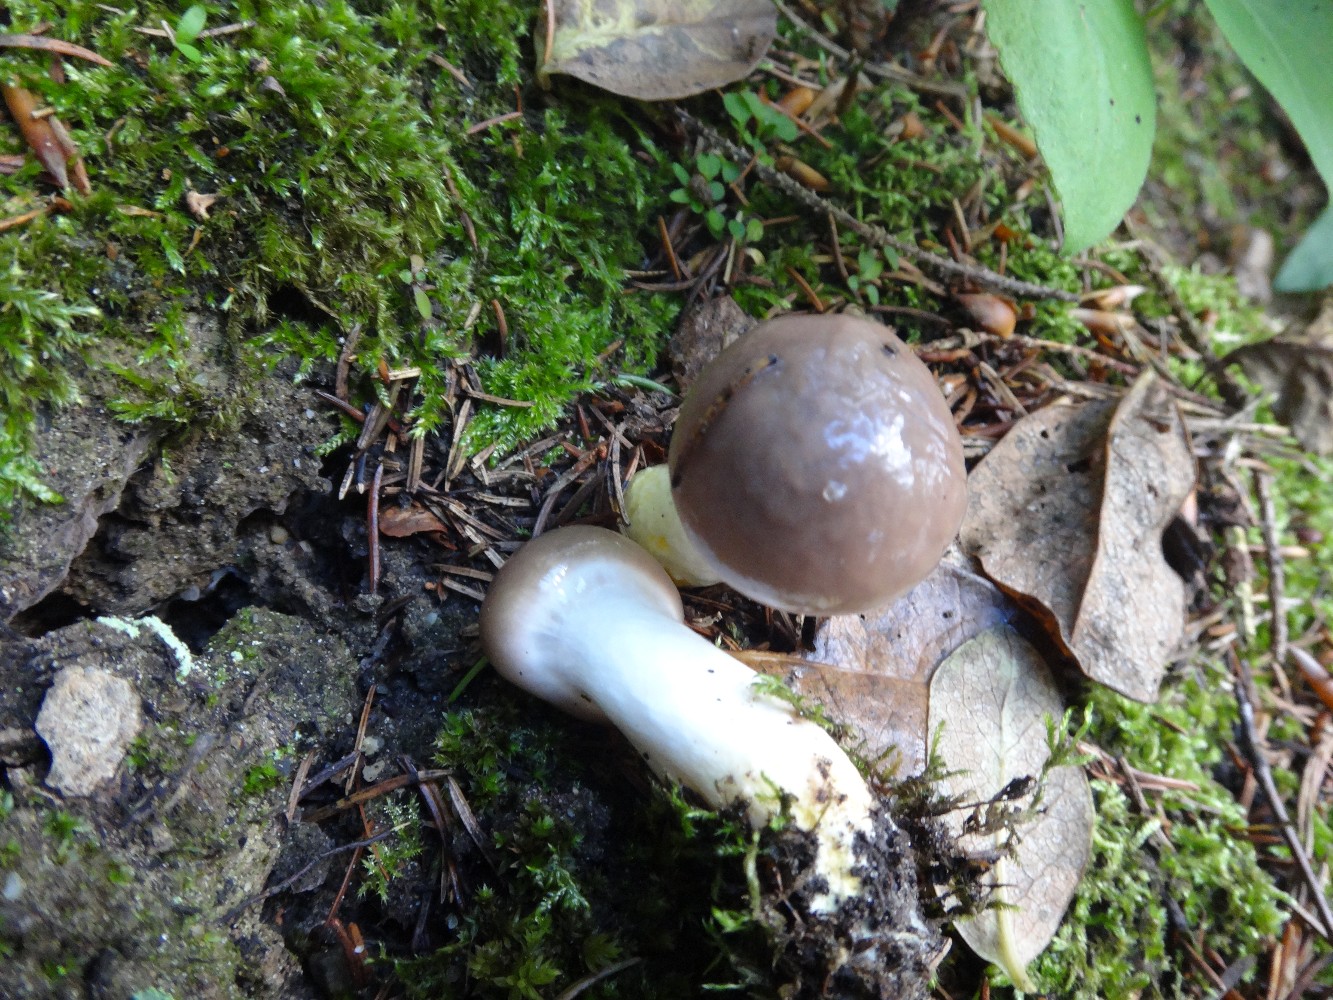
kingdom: Fungi
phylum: Basidiomycota
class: Agaricomycetes
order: Boletales
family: Gomphidiaceae
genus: Gomphidius
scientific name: Gomphidius glutinosus
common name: grå slimslør
